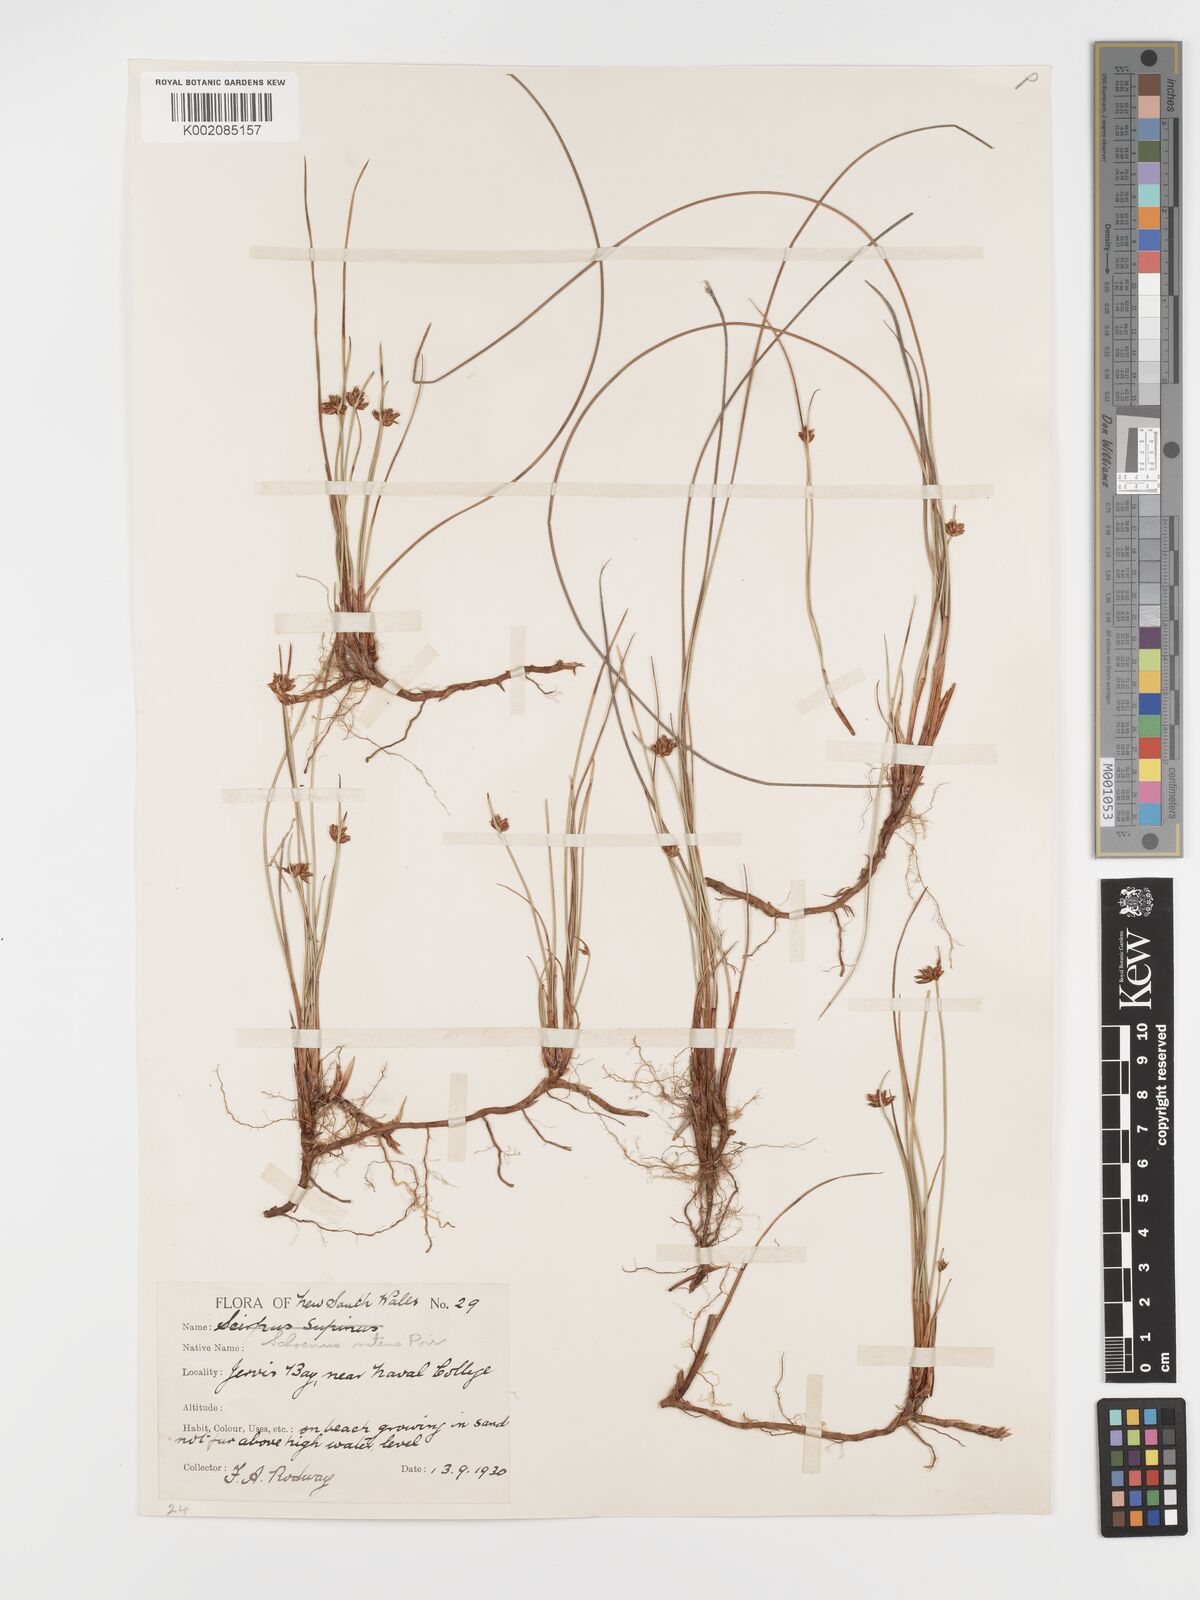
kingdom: Plantae
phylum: Tracheophyta
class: Liliopsida
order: Poales
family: Cyperaceae
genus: Schoenus
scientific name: Schoenus nitens
